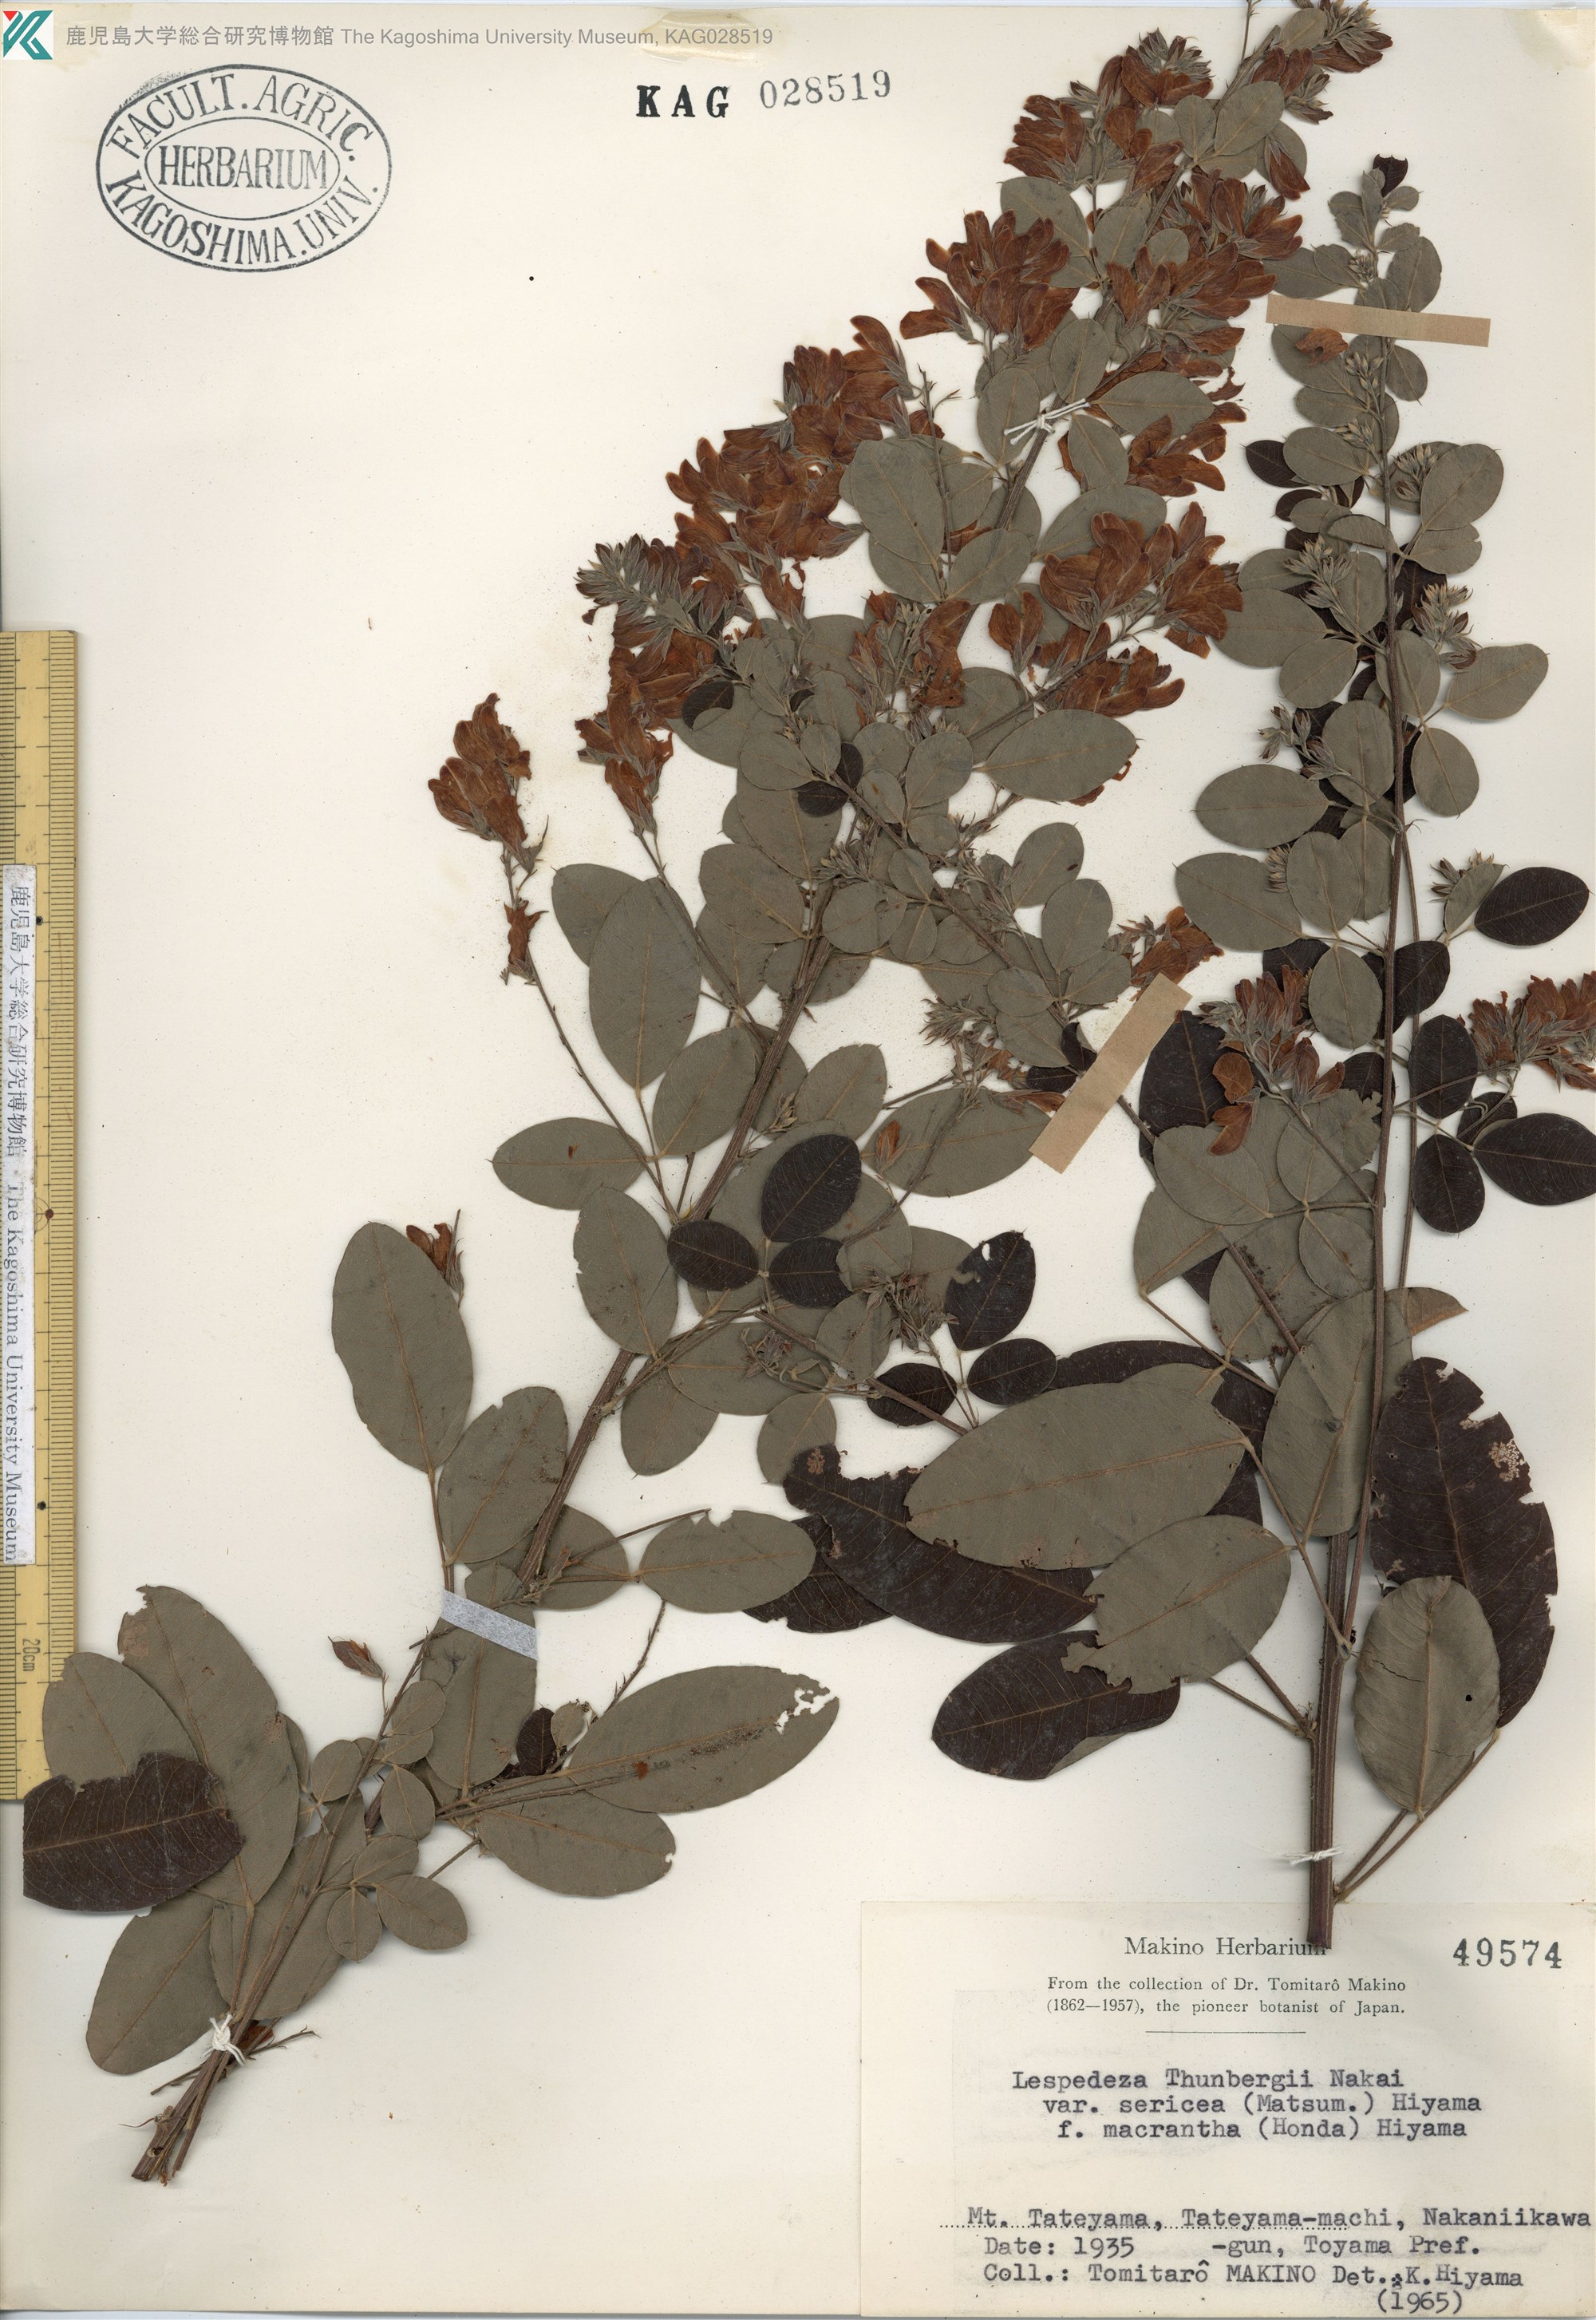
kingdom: Plantae
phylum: Tracheophyta
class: Magnoliopsida
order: Fabales
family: Fabaceae
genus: Lespedeza
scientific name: Lespedeza thunbergii
